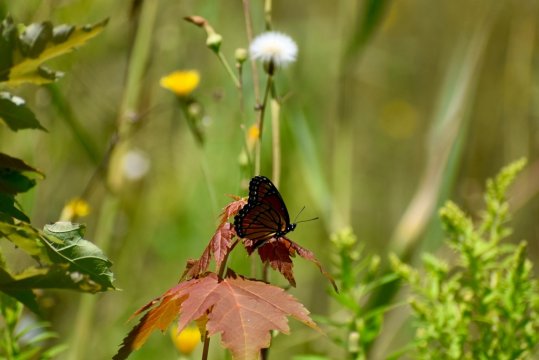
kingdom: Animalia
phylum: Arthropoda
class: Insecta
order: Lepidoptera
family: Nymphalidae
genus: Limenitis
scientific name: Limenitis archippus
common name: Viceroy
